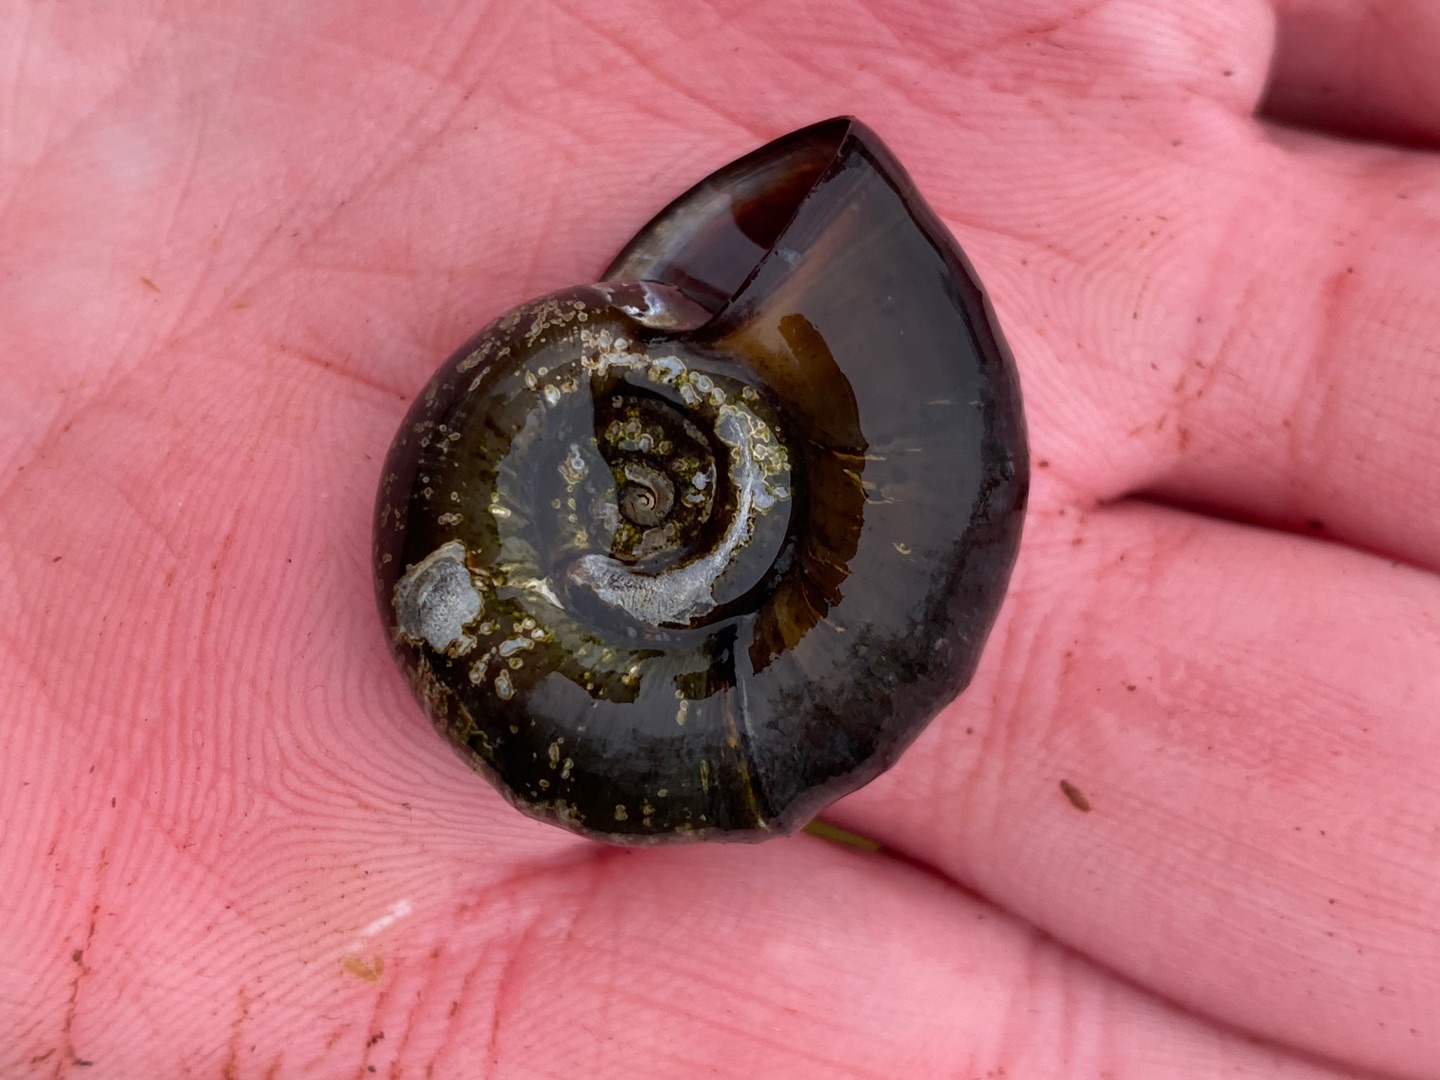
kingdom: Animalia
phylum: Mollusca
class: Gastropoda
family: Planorbidae
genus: Planorbarius
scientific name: Planorbarius corneus
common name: Posthornsnegl
